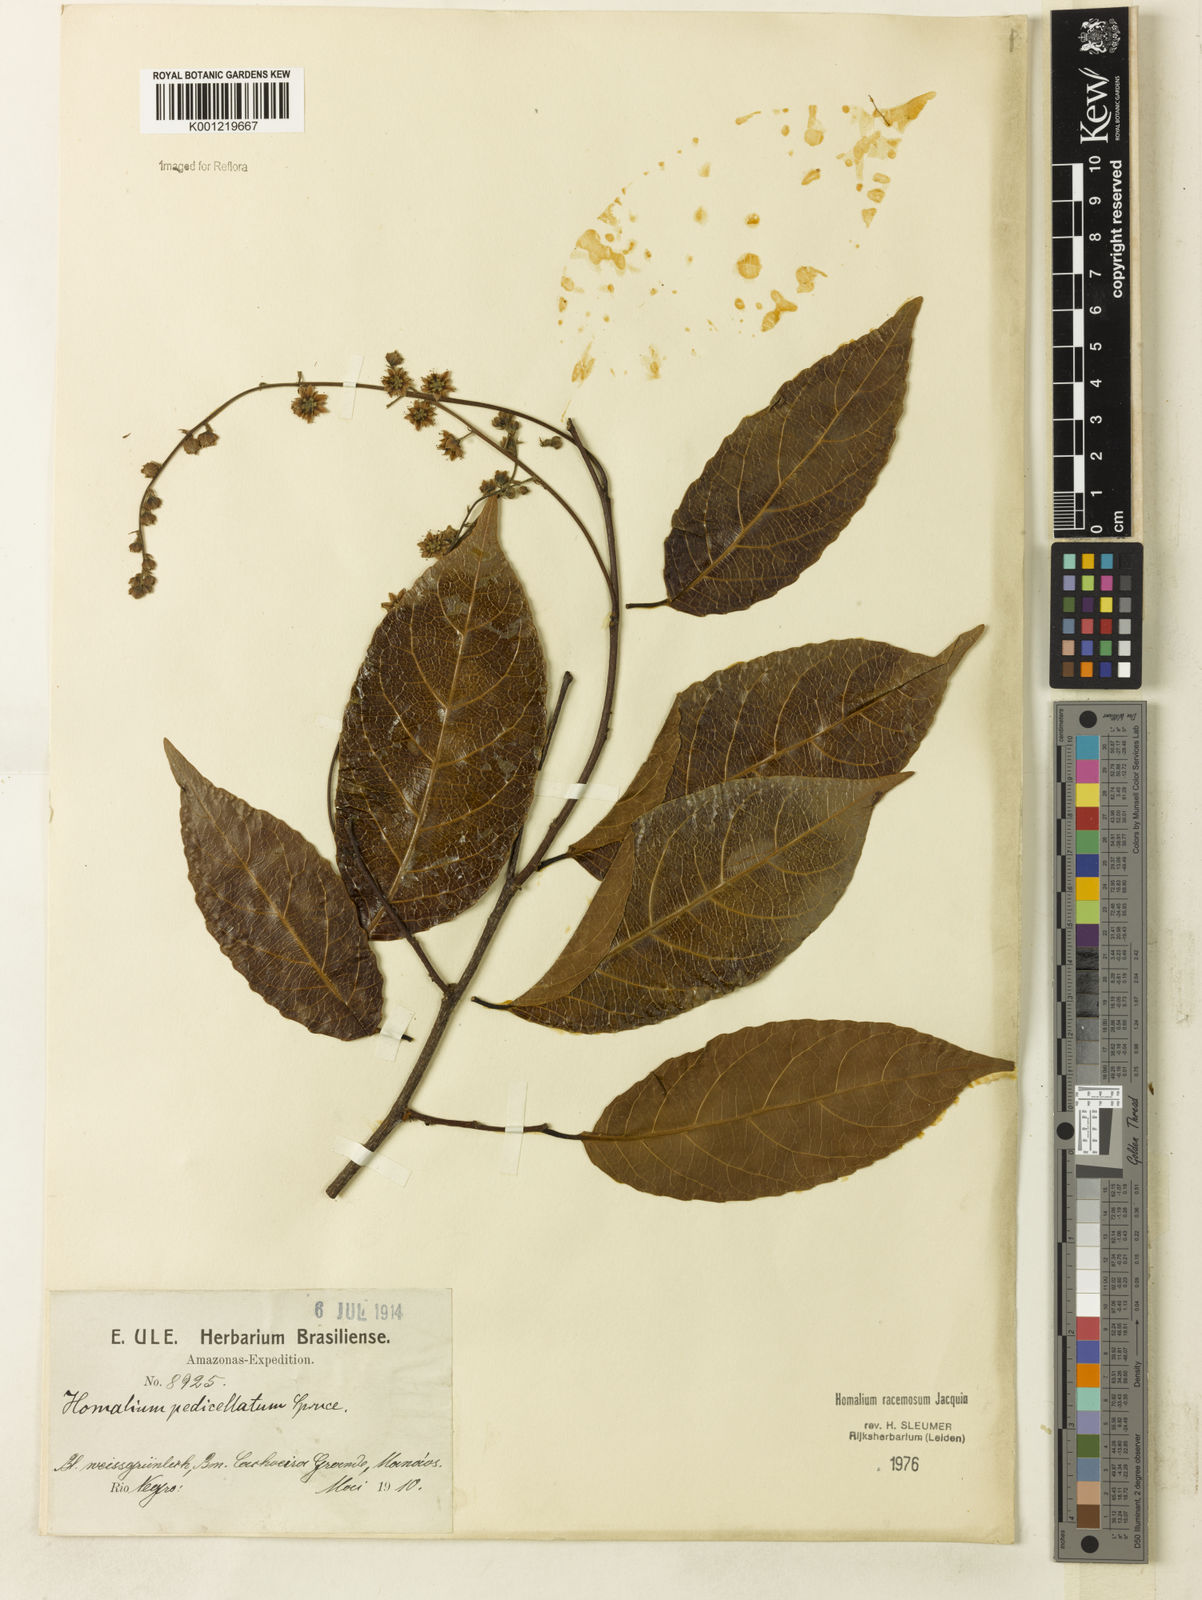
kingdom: Plantae
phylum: Tracheophyta
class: Magnoliopsida
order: Malpighiales
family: Salicaceae
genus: Homalium
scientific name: Homalium racemosum
